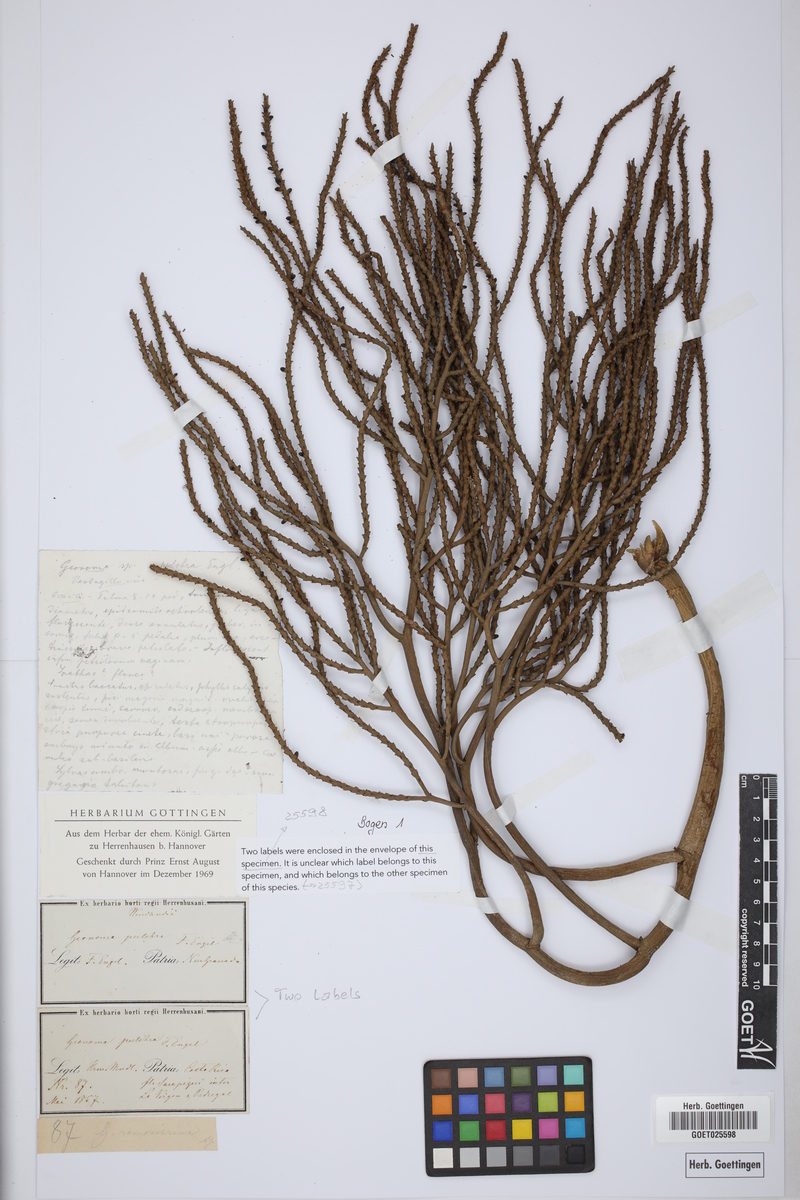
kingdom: Plantae
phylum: Tracheophyta
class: Liliopsida
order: Arecales
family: Arecaceae
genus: Geonoma
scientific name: Geonoma pinnatifrons
